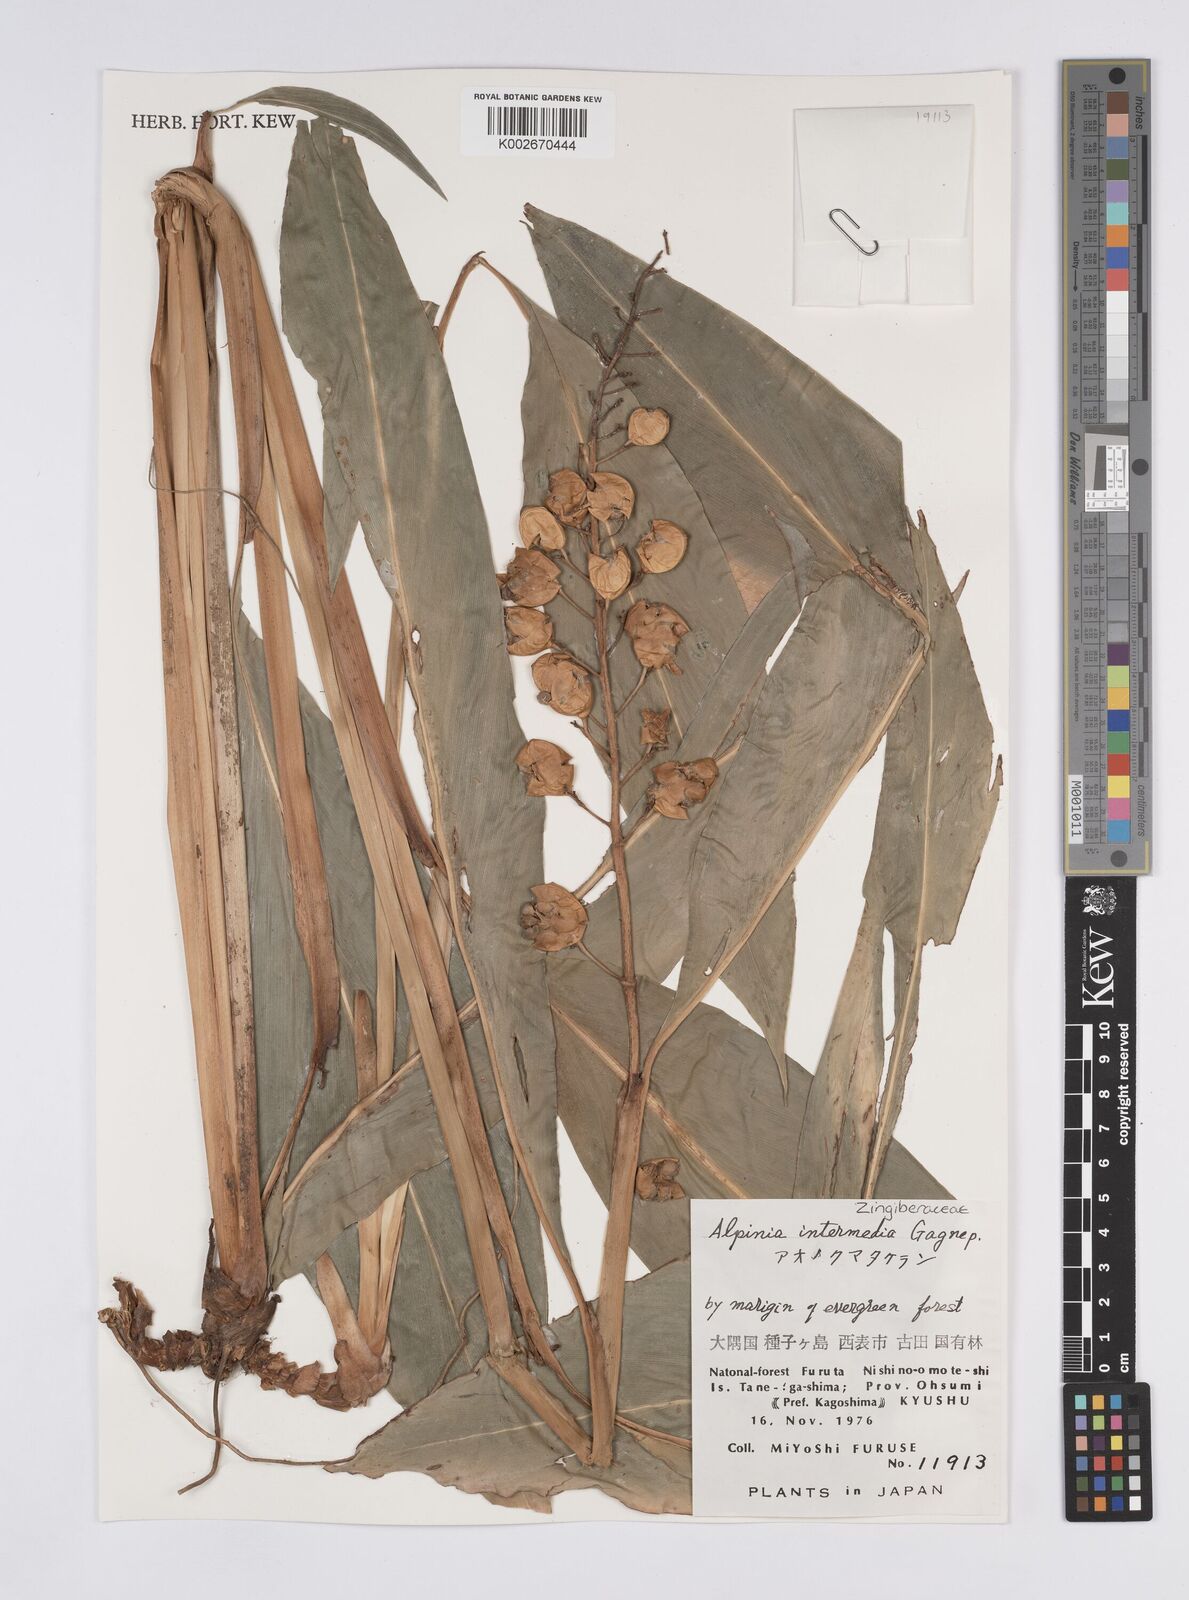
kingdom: Plantae
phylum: Tracheophyta
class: Liliopsida
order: Zingiberales
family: Zingiberaceae
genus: Alpinia
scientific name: Alpinia intermedia
